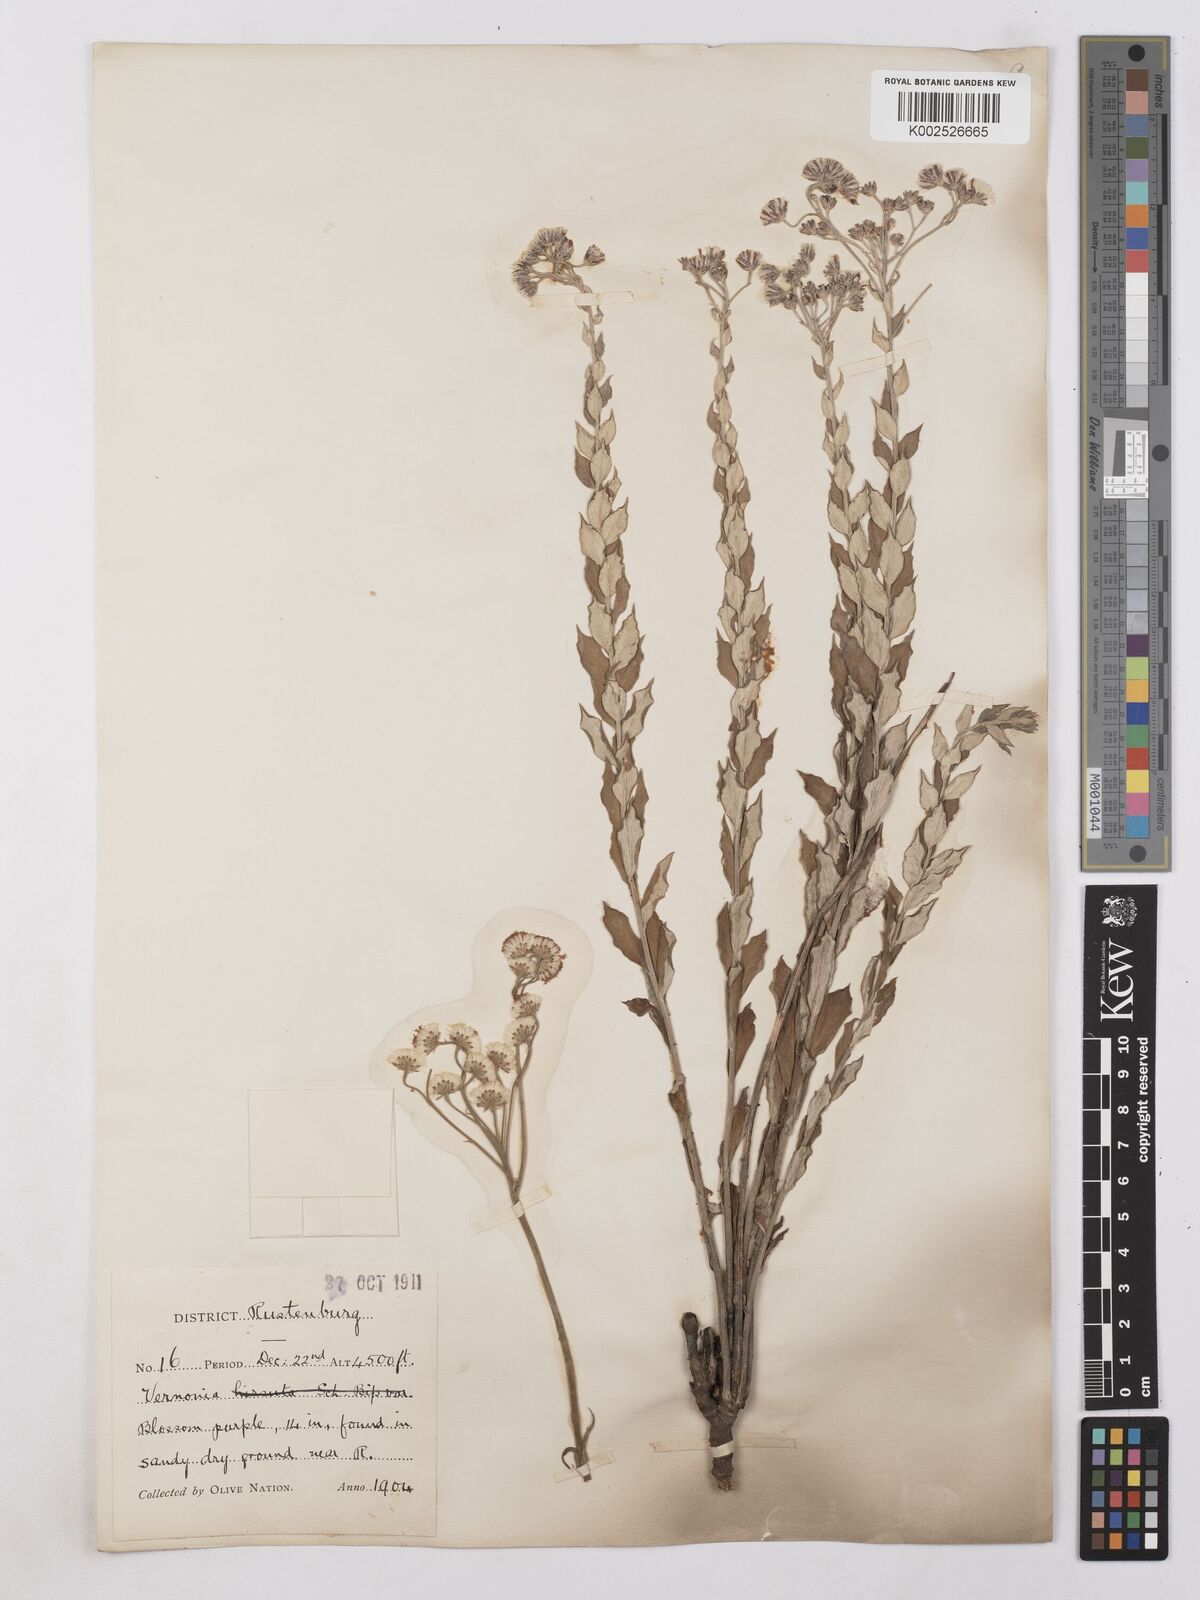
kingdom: Plantae
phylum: Tracheophyta
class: Magnoliopsida
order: Asterales
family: Asteraceae
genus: Hilliardiella
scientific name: Hilliardiella oligocephala
